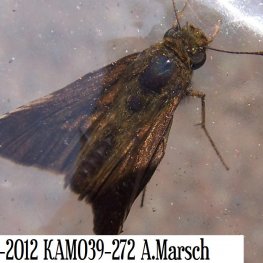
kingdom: Animalia
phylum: Arthropoda
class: Insecta
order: Lepidoptera
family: Hesperiidae
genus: Euphyes
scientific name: Euphyes vestris
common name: Dun Skipper
